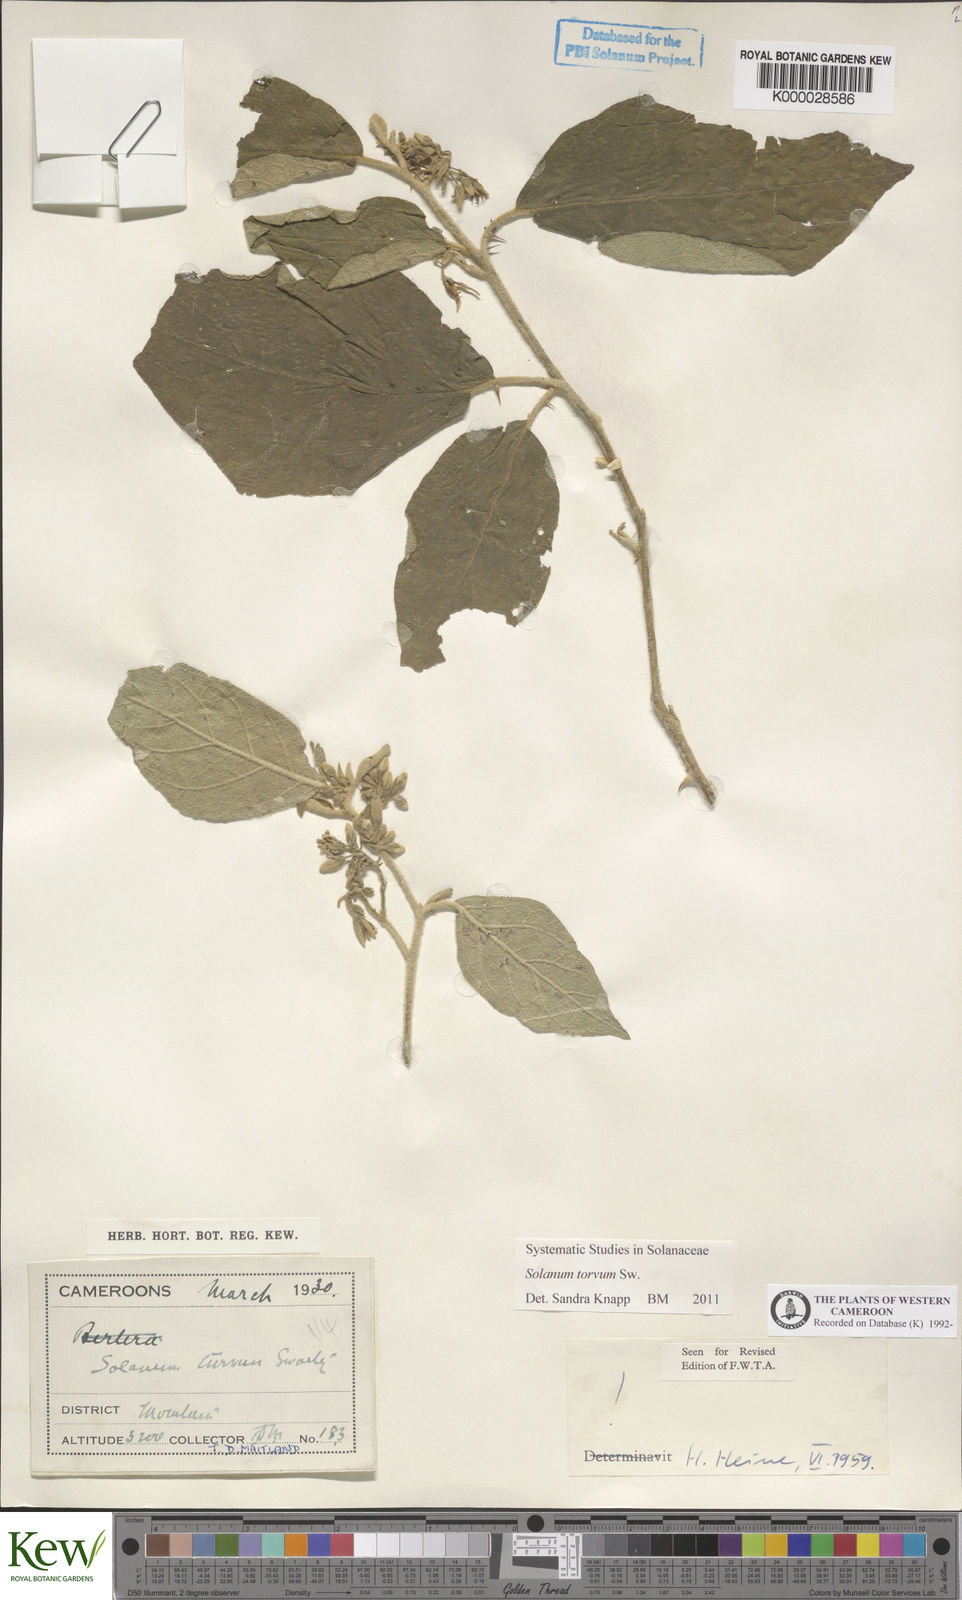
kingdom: Plantae
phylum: Tracheophyta
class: Magnoliopsida
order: Solanales
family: Solanaceae
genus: Solanum
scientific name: Solanum torvum
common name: Turkey berry
